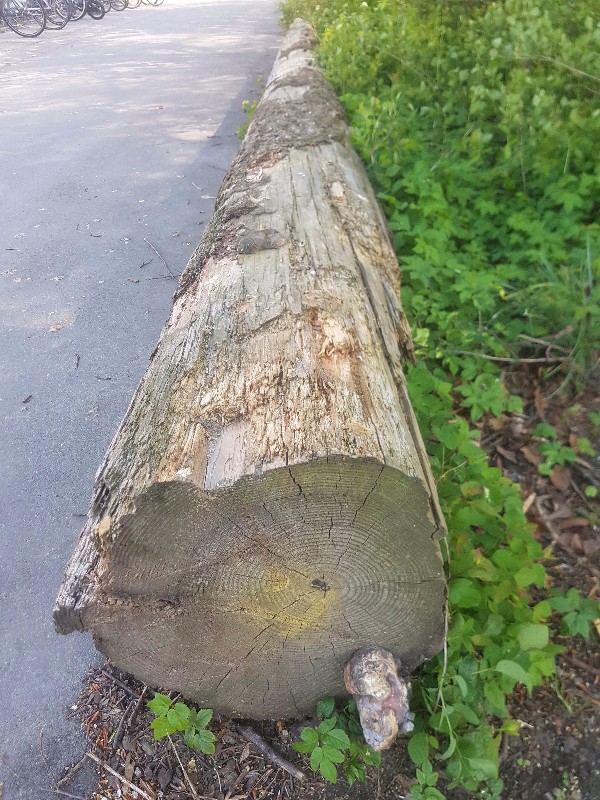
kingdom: Fungi
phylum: Basidiomycota
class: Agaricomycetes
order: Polyporales
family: Fomitopsidaceae
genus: Fomitopsis
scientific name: Fomitopsis pinicola
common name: randbæltet hovporesvamp
